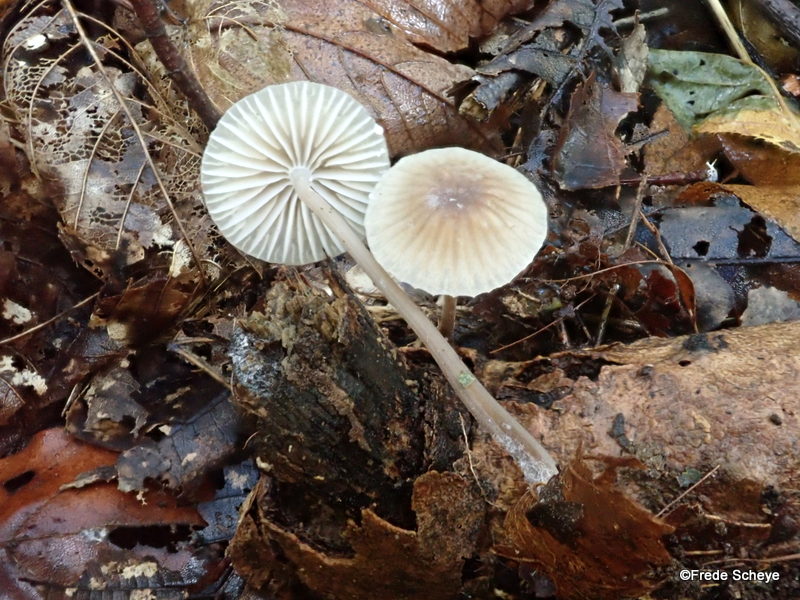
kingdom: Fungi
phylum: Basidiomycota
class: Agaricomycetes
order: Agaricales
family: Mycenaceae
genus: Mycena
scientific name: Mycena galopus
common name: hvidmælket huesvamp
